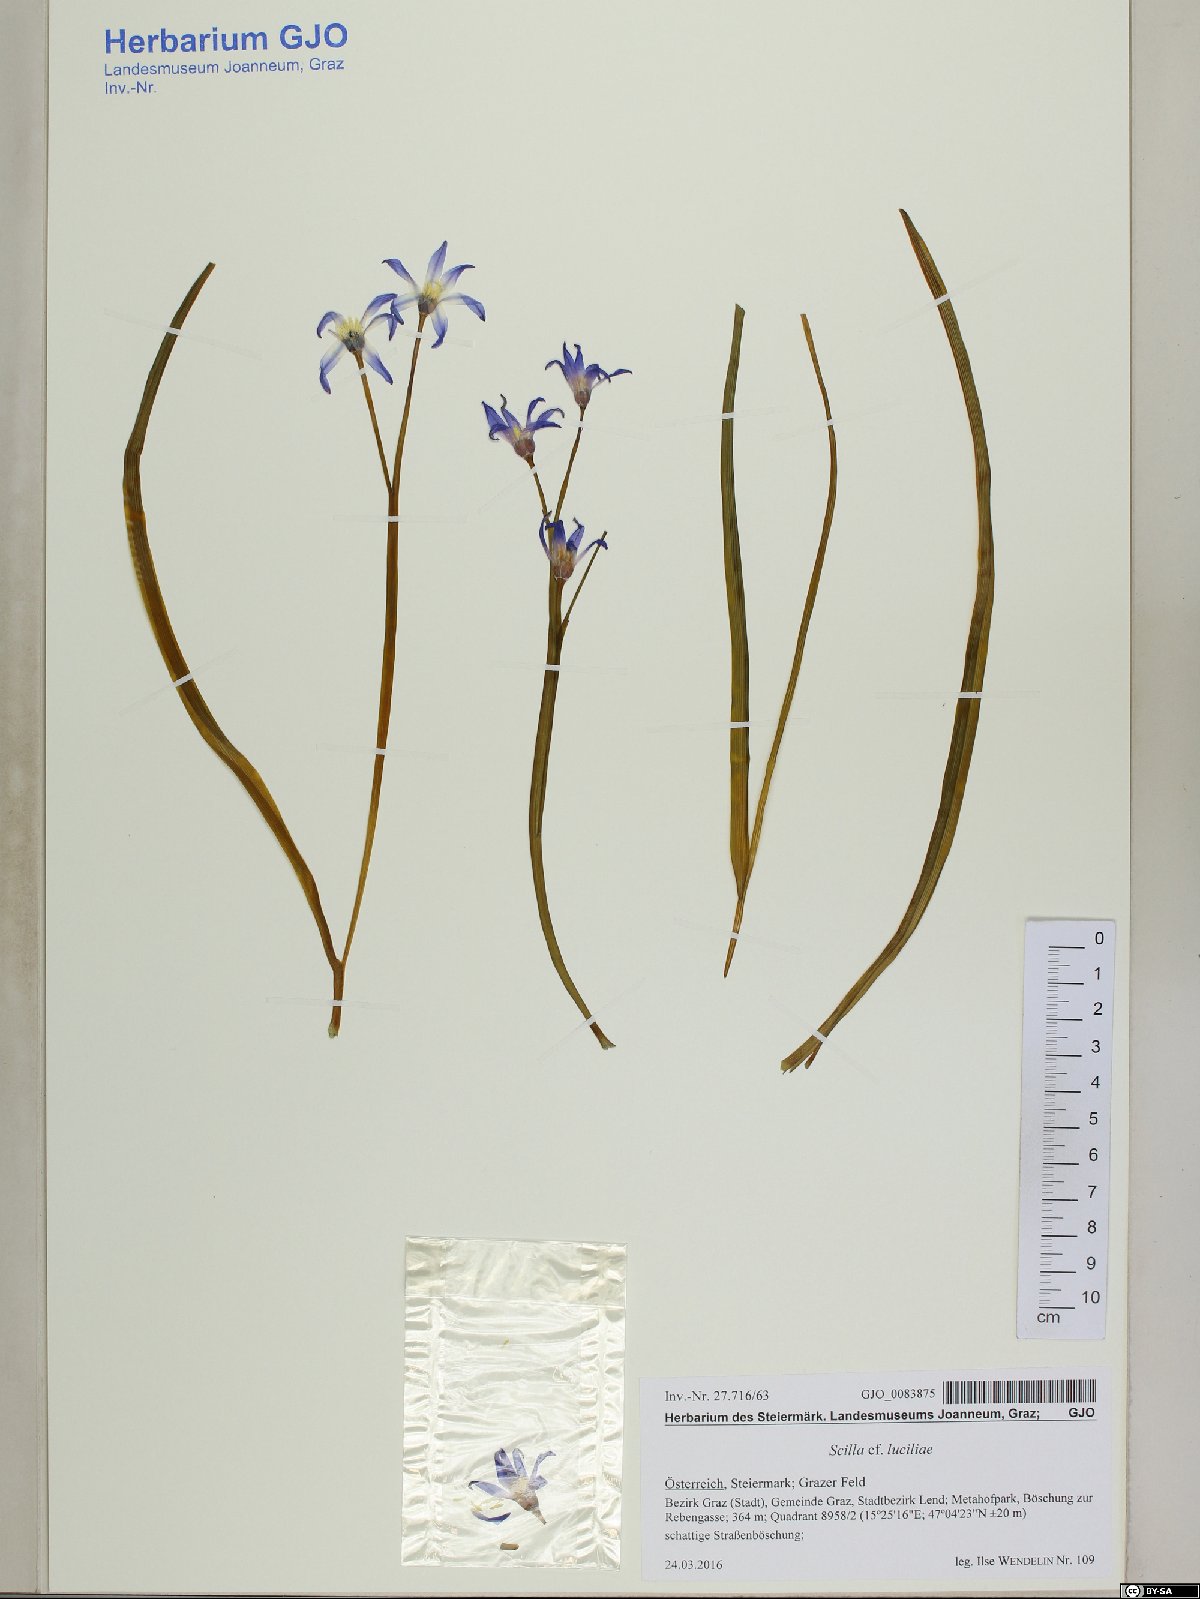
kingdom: Plantae
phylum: Tracheophyta
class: Liliopsida
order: Asparagales
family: Asparagaceae
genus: Scilla
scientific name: Scilla forbesii
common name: Glory-of-the-snow
